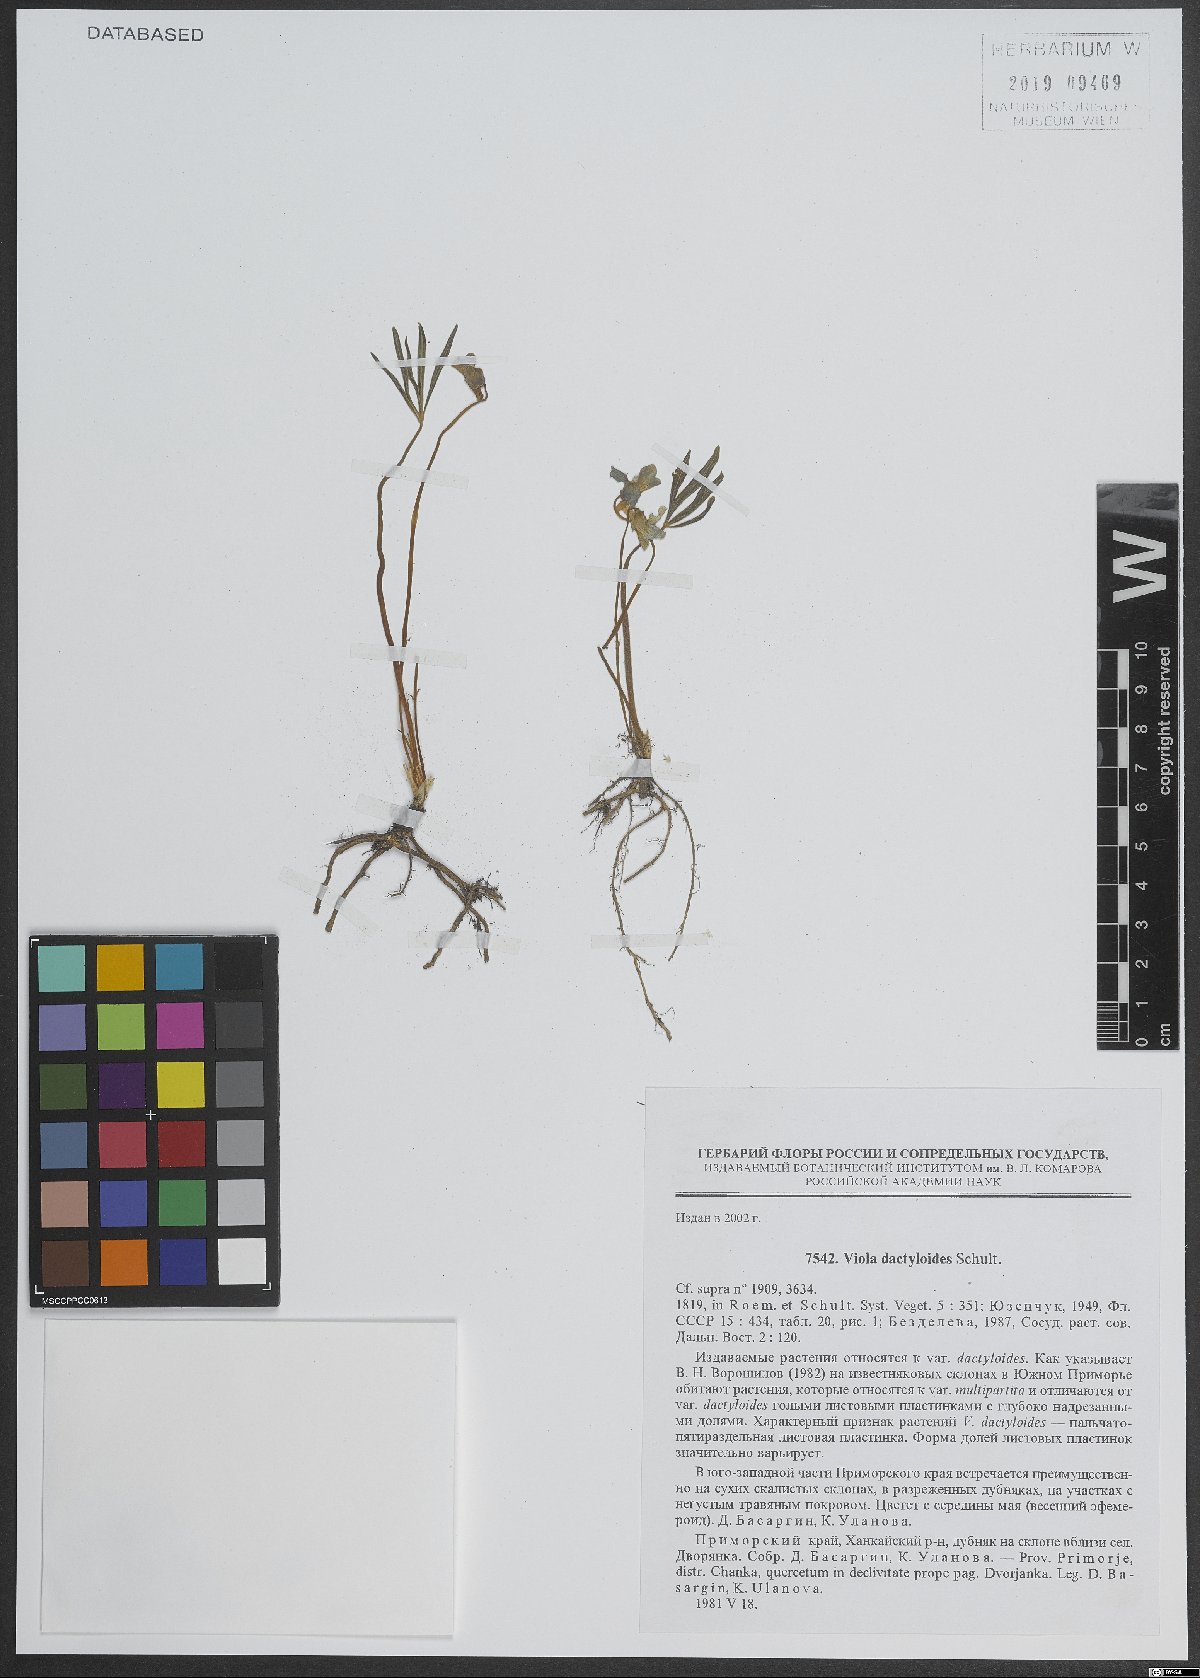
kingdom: Plantae
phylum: Tracheophyta
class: Magnoliopsida
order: Malpighiales
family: Violaceae
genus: Viola
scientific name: Viola dactyloides
